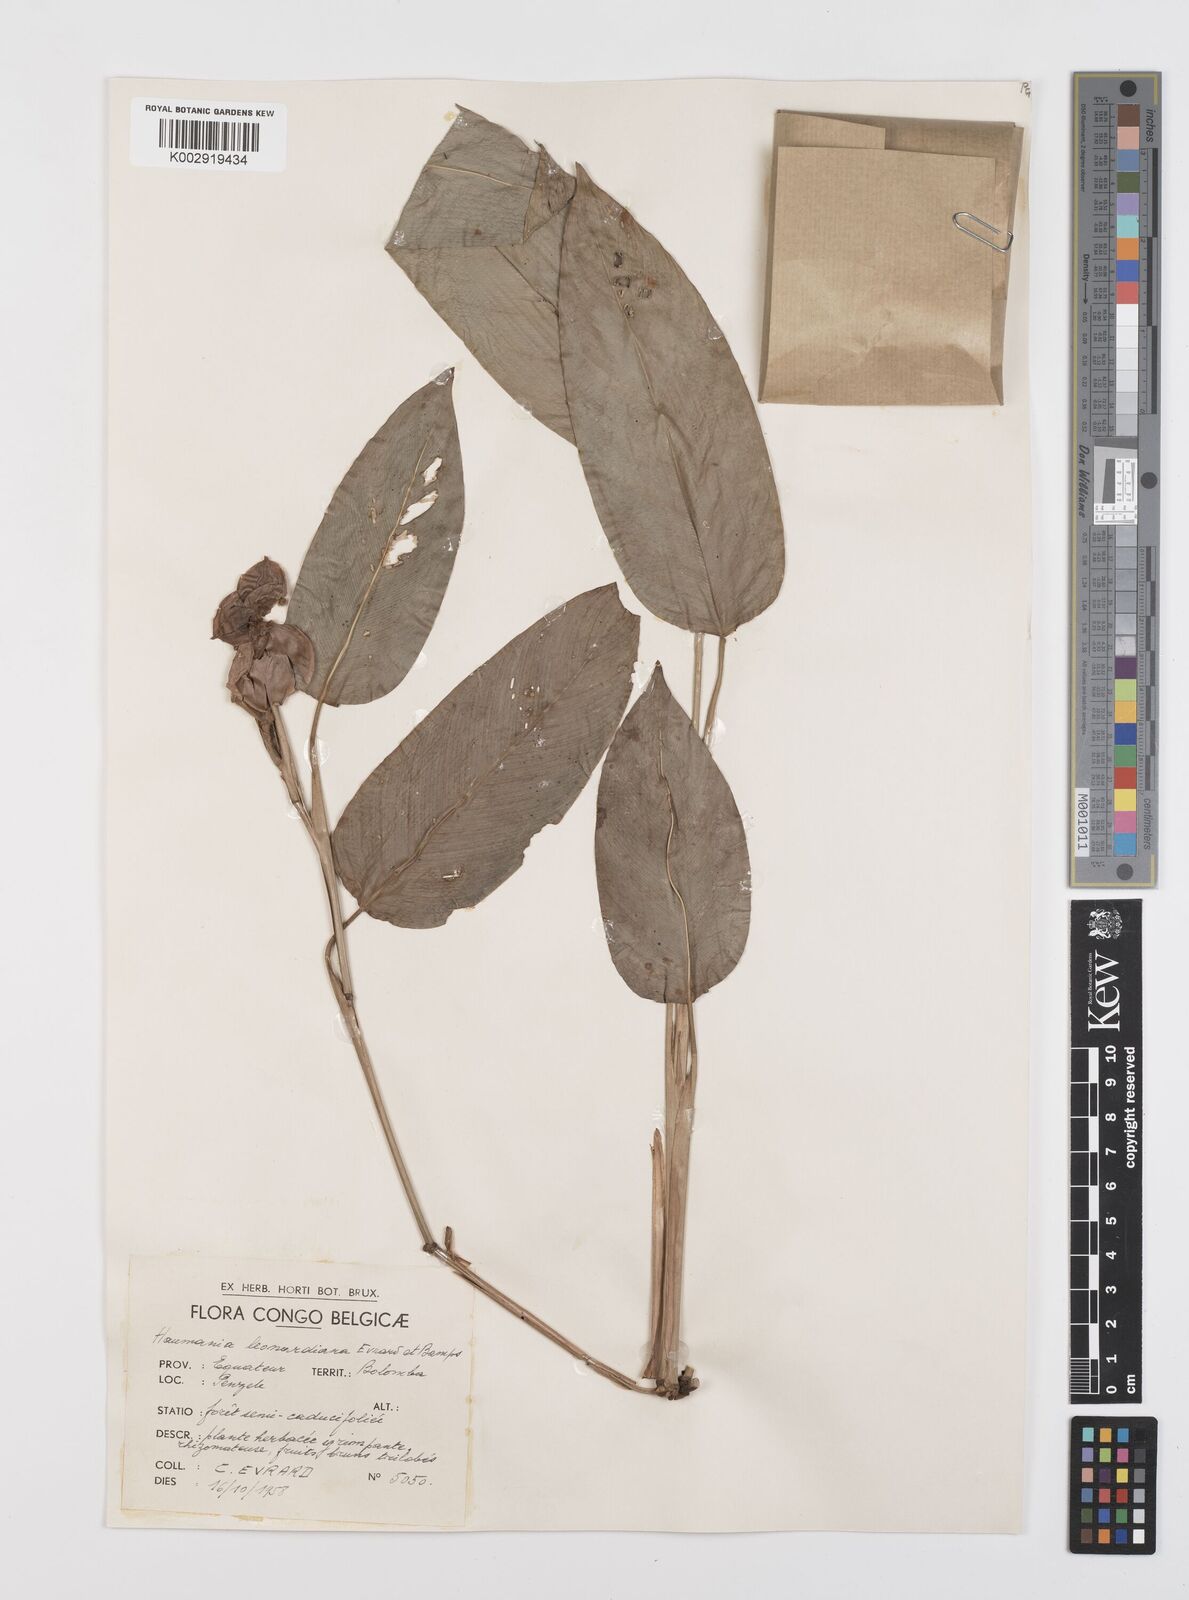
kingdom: Plantae
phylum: Tracheophyta
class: Liliopsida
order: Zingiberales
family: Marantaceae
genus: Haumania
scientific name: Haumania leonardiana
